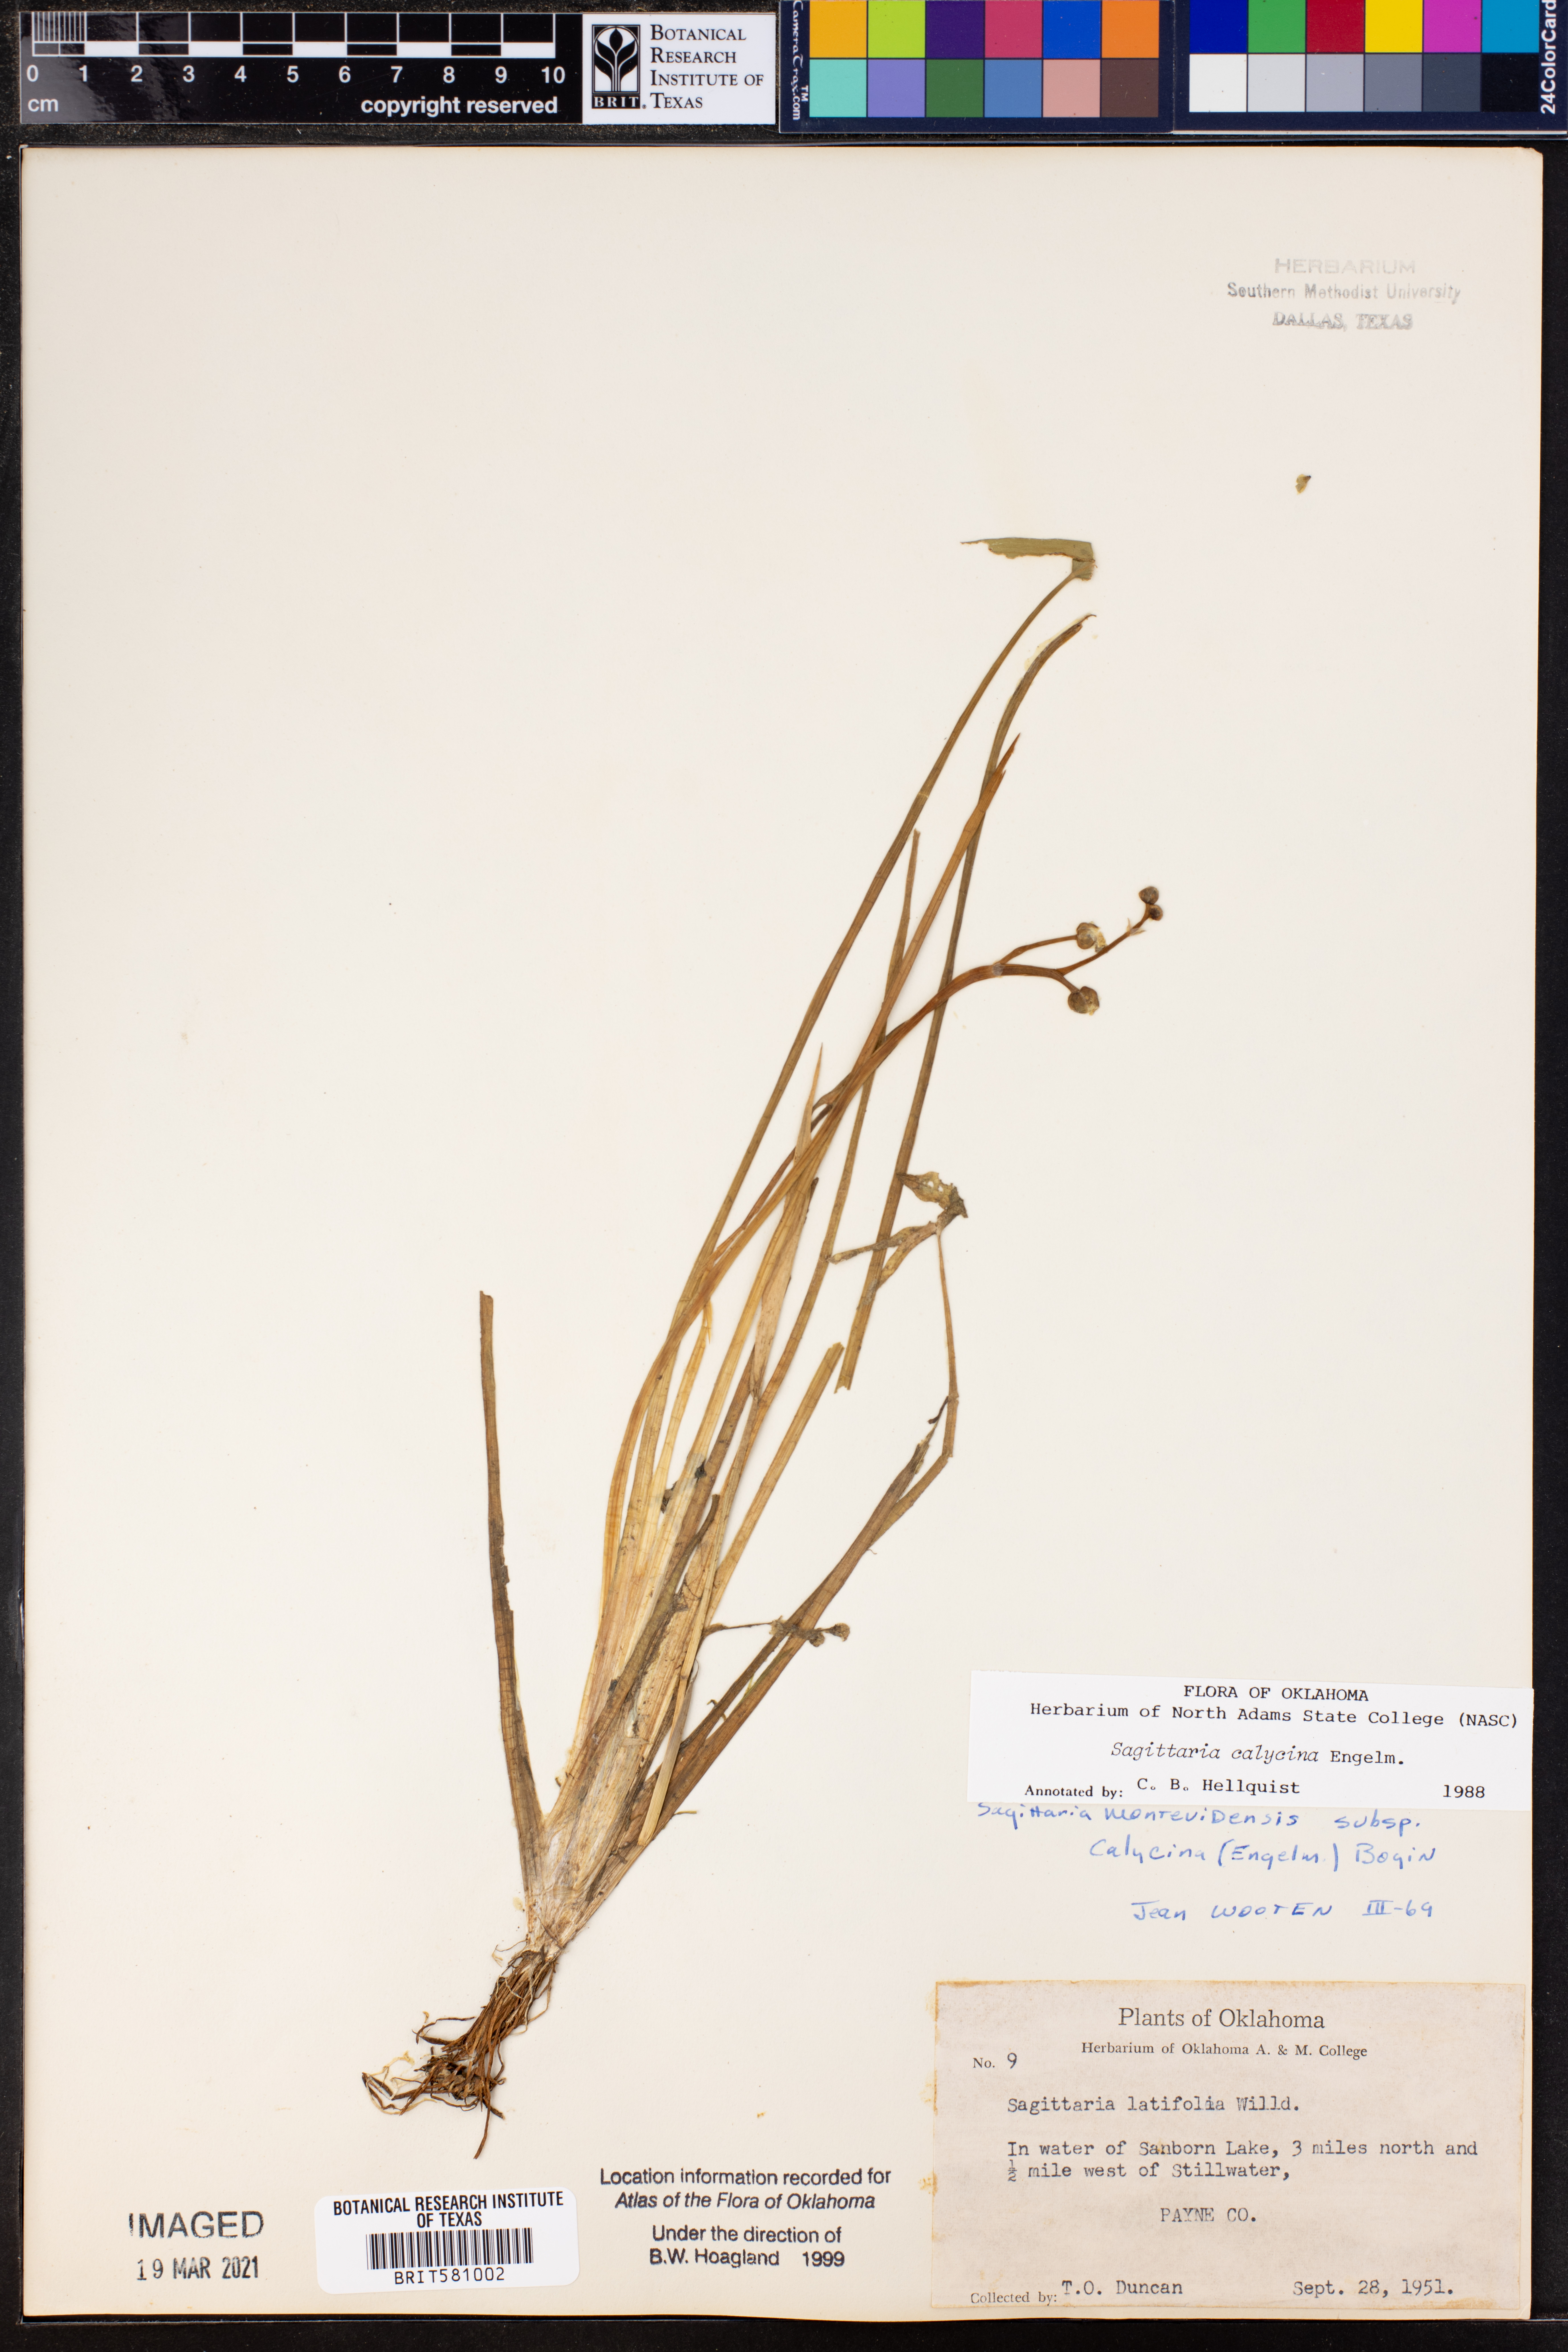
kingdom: Plantae
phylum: Tracheophyta
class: Liliopsida
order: Alismatales
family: Alismataceae
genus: Sagittaria
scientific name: Sagittaria montevidensis
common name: Giant arrowhead
